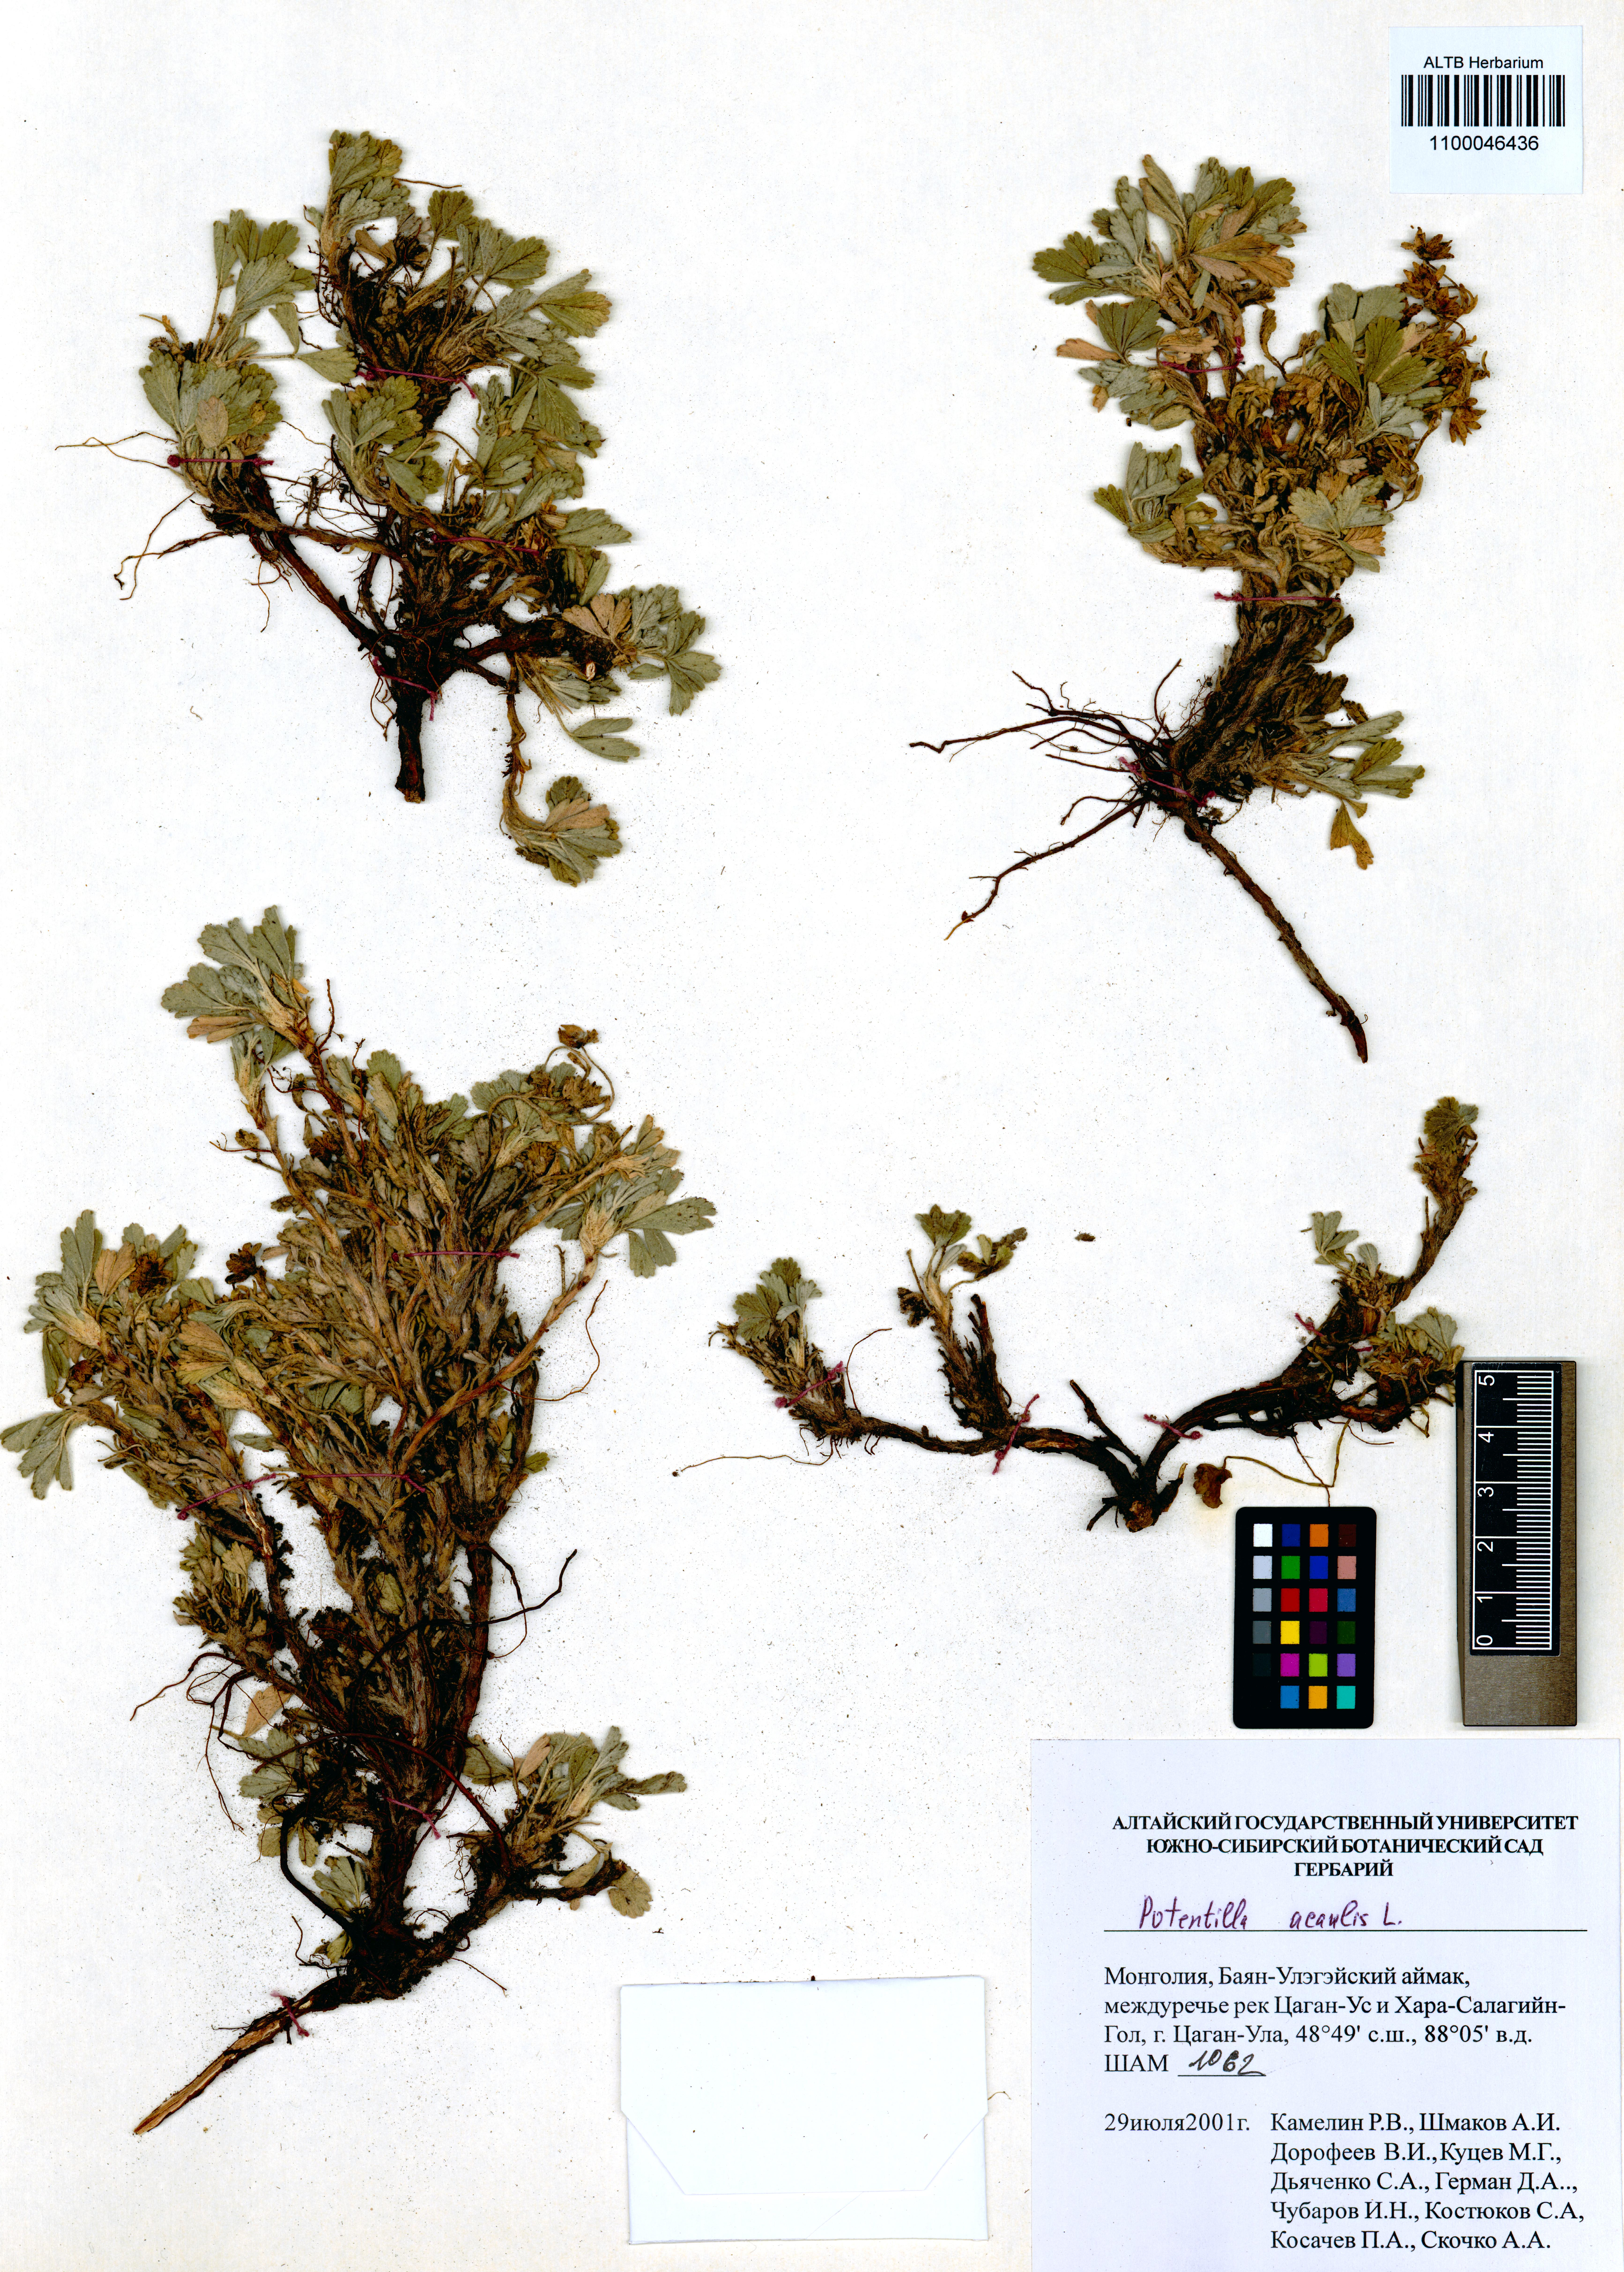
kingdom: Plantae
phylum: Tracheophyta
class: Magnoliopsida
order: Rosales
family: Rosaceae
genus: Potentilla
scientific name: Potentilla acaulis
